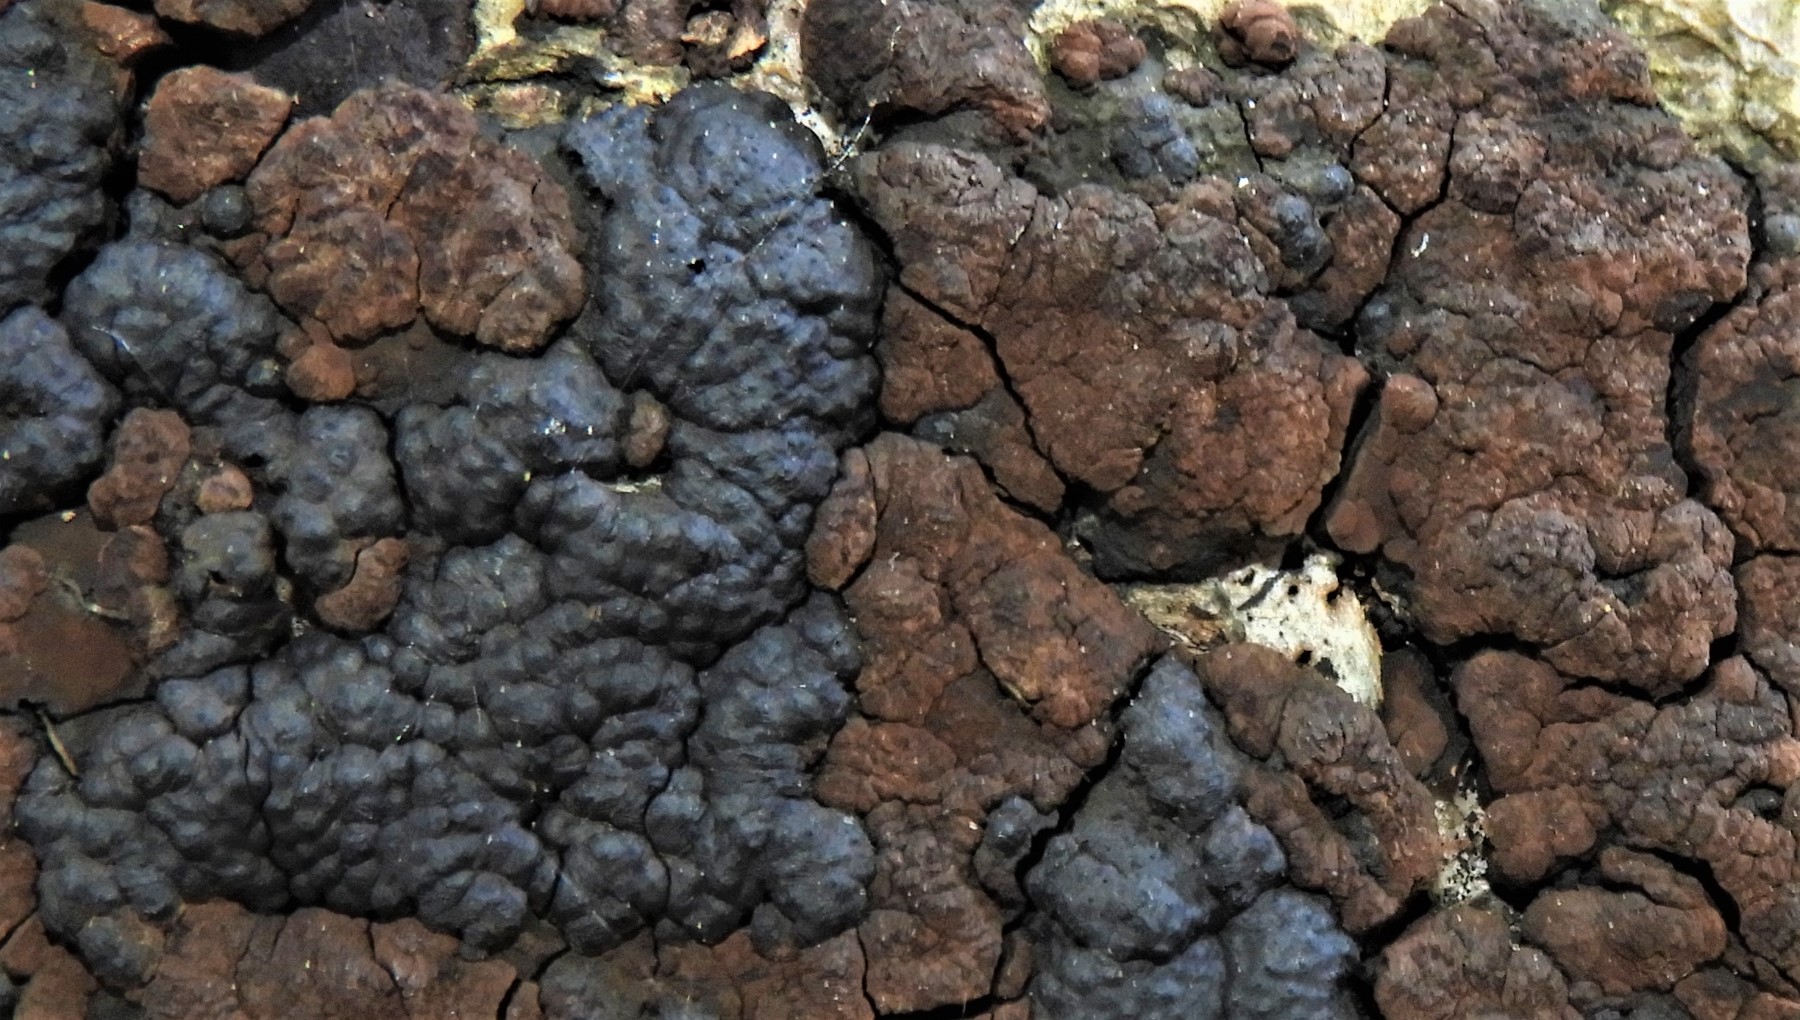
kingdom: Fungi
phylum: Ascomycota
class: Sordariomycetes
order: Xylariales
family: Hypoxylaceae
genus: Jackrogersella
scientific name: Jackrogersella multiformis
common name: foranderlig kulbær
